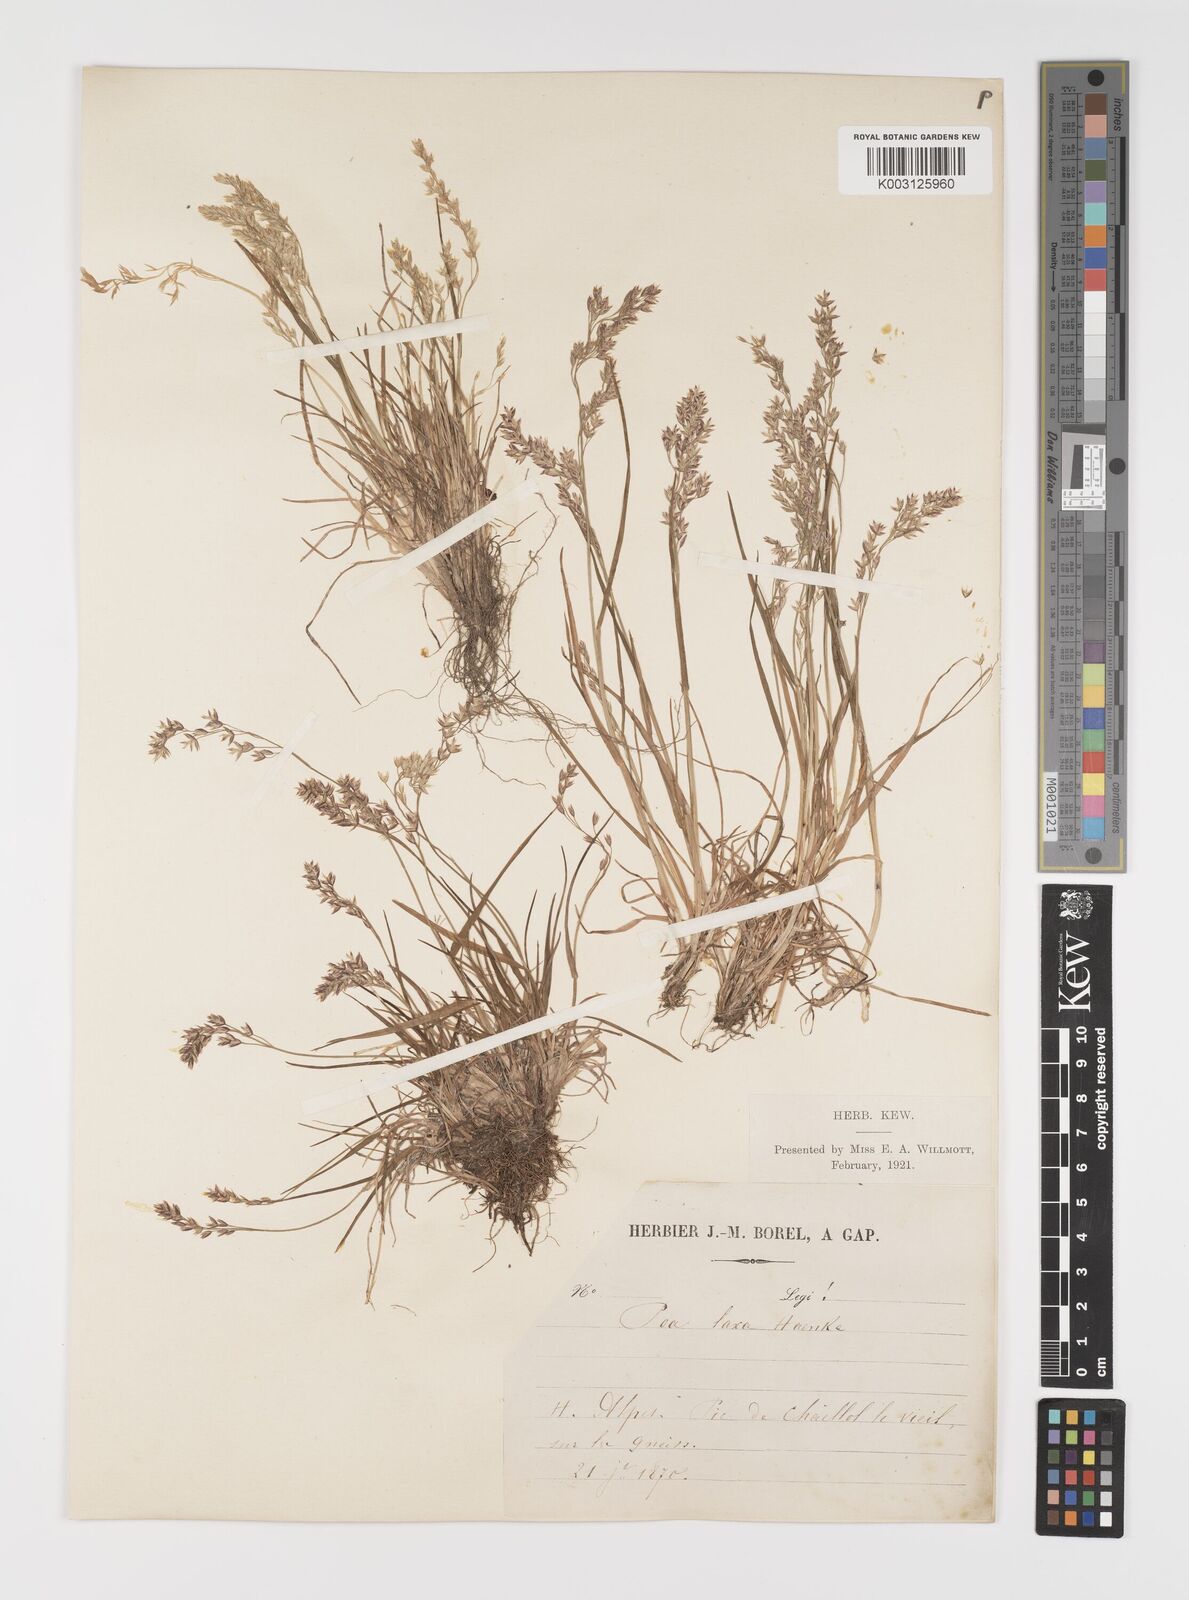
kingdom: Plantae
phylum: Tracheophyta
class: Liliopsida
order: Poales
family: Poaceae
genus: Poa
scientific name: Poa laxa
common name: Lax bluegrass
